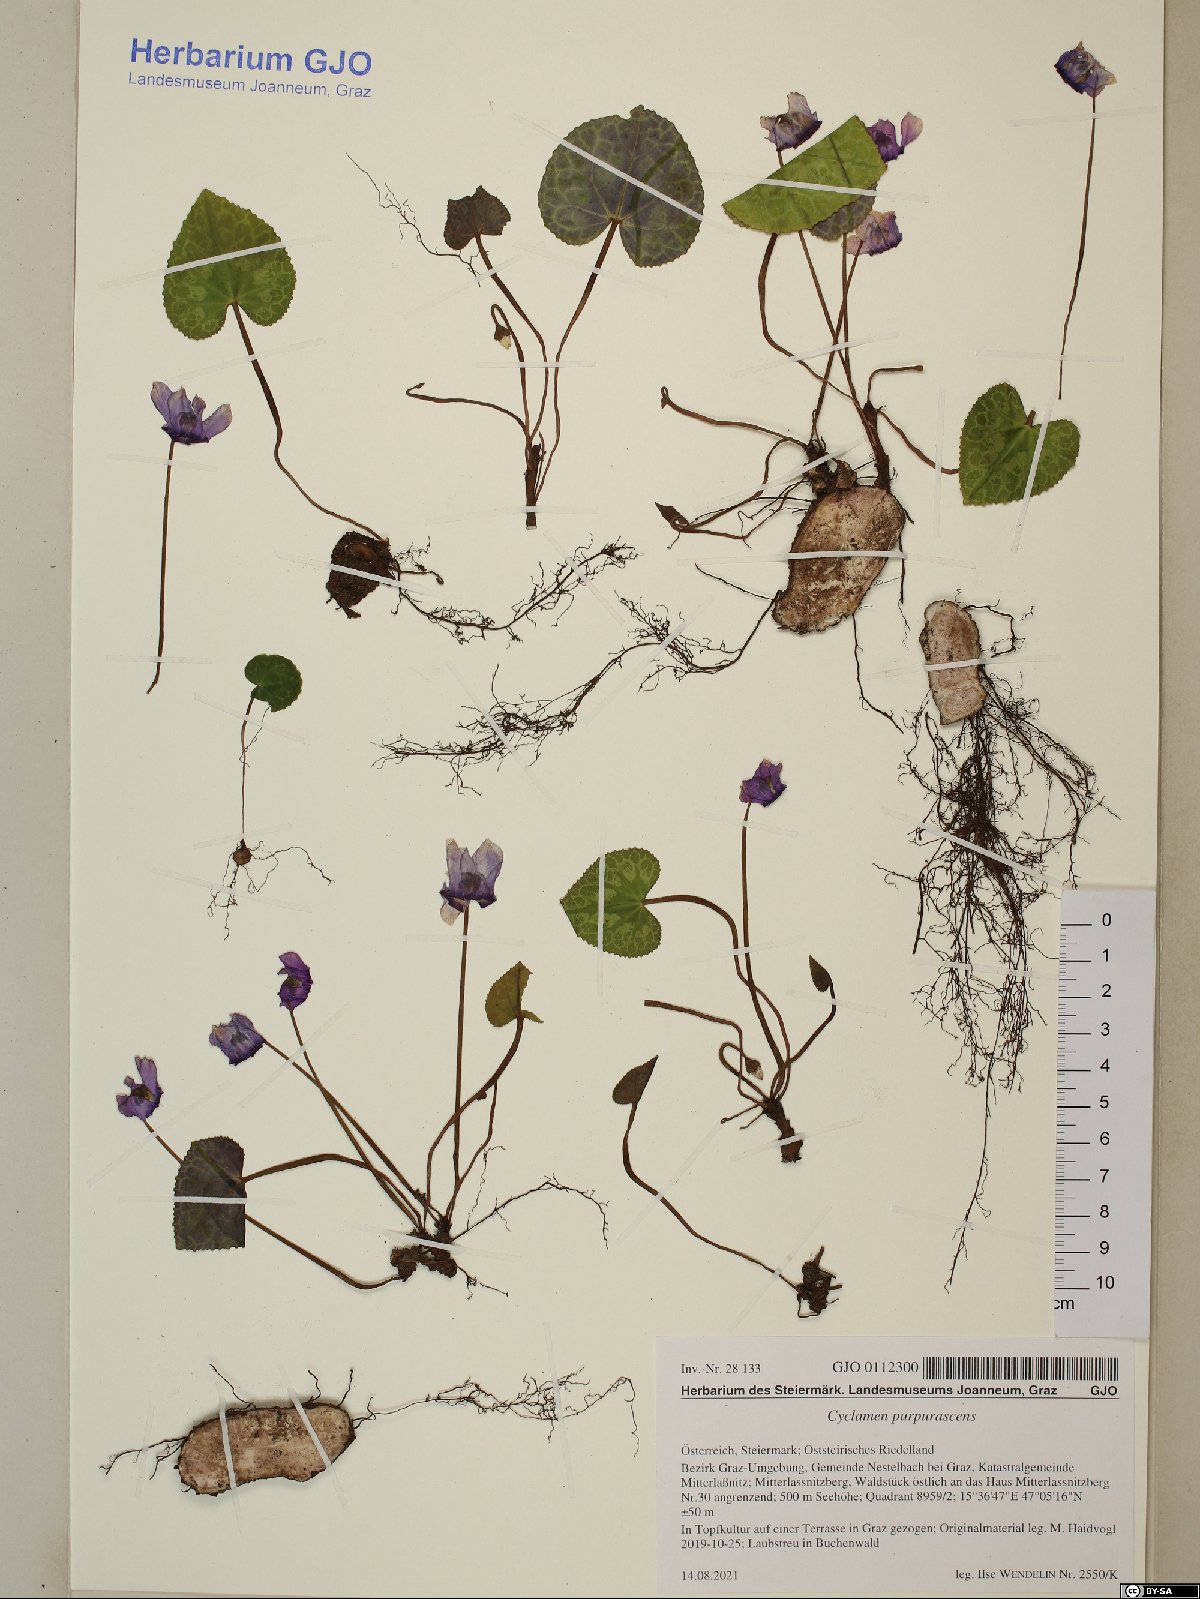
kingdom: Plantae
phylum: Tracheophyta
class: Magnoliopsida
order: Ericales
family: Primulaceae
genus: Cyclamen
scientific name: Cyclamen purpurascens
